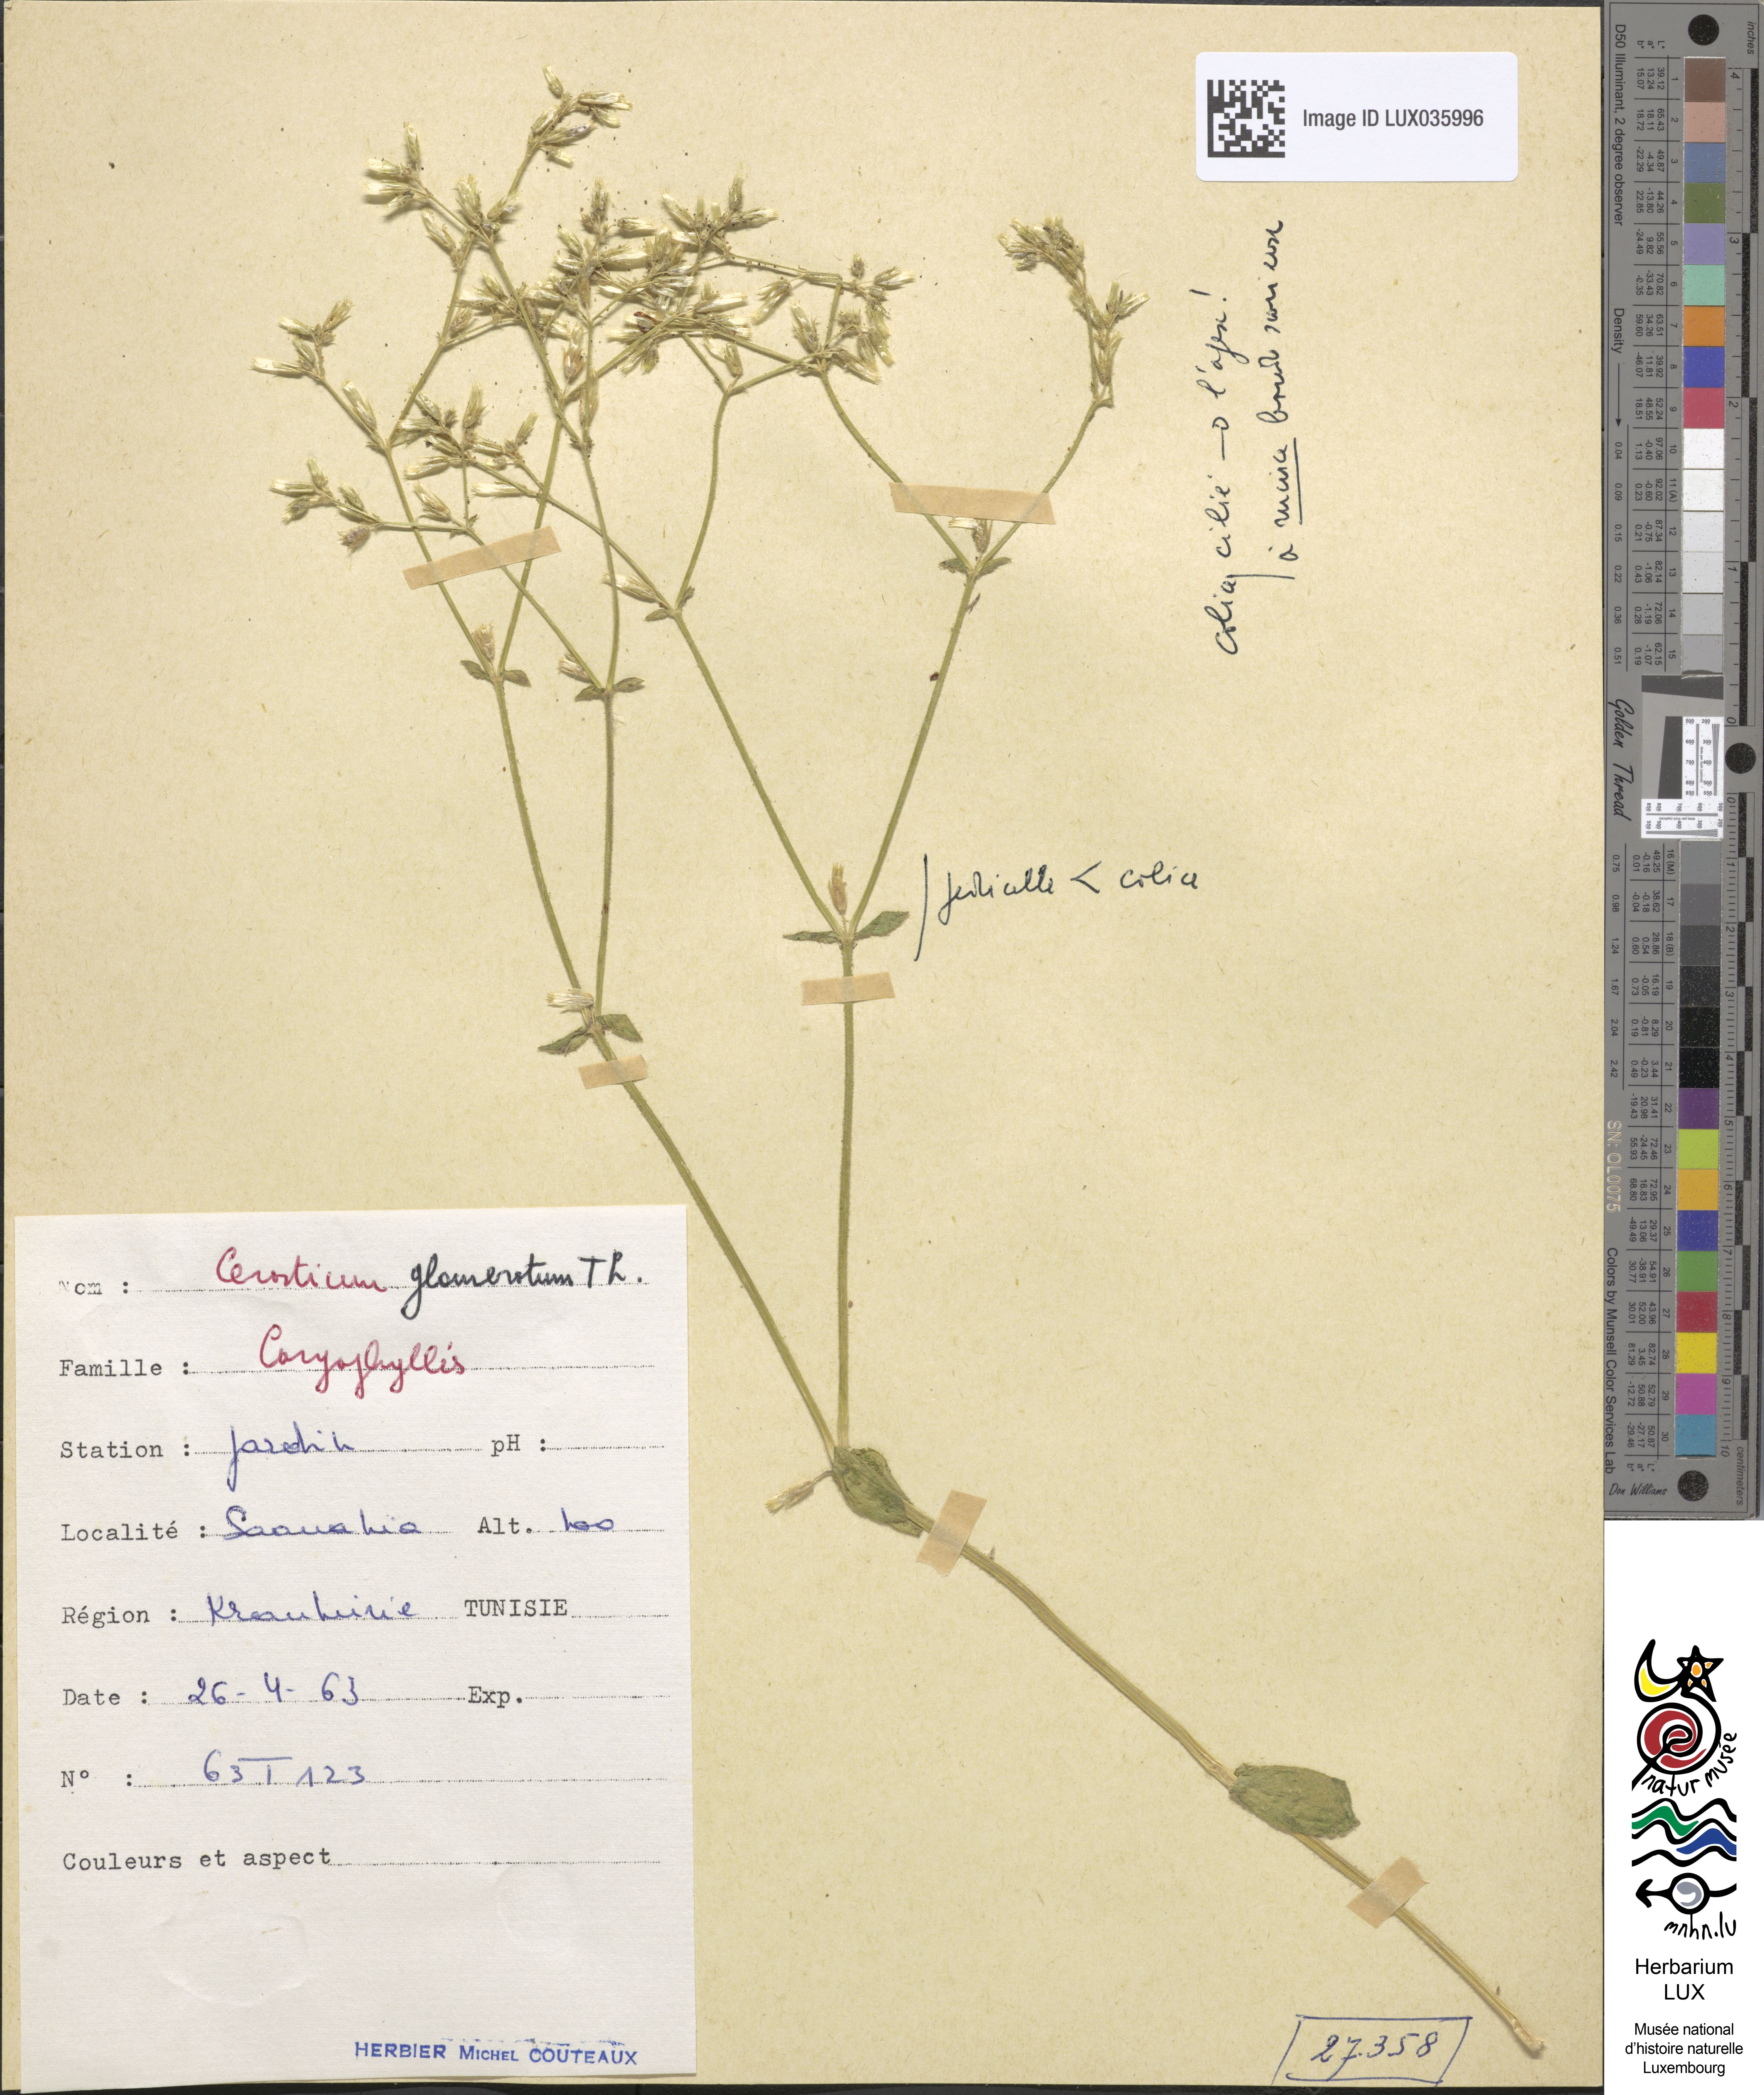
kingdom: Plantae
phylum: Tracheophyta
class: Magnoliopsida
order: Caryophyllales
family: Caryophyllaceae
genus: Cerastium
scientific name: Cerastium glomeratum
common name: Sticky chickweed
